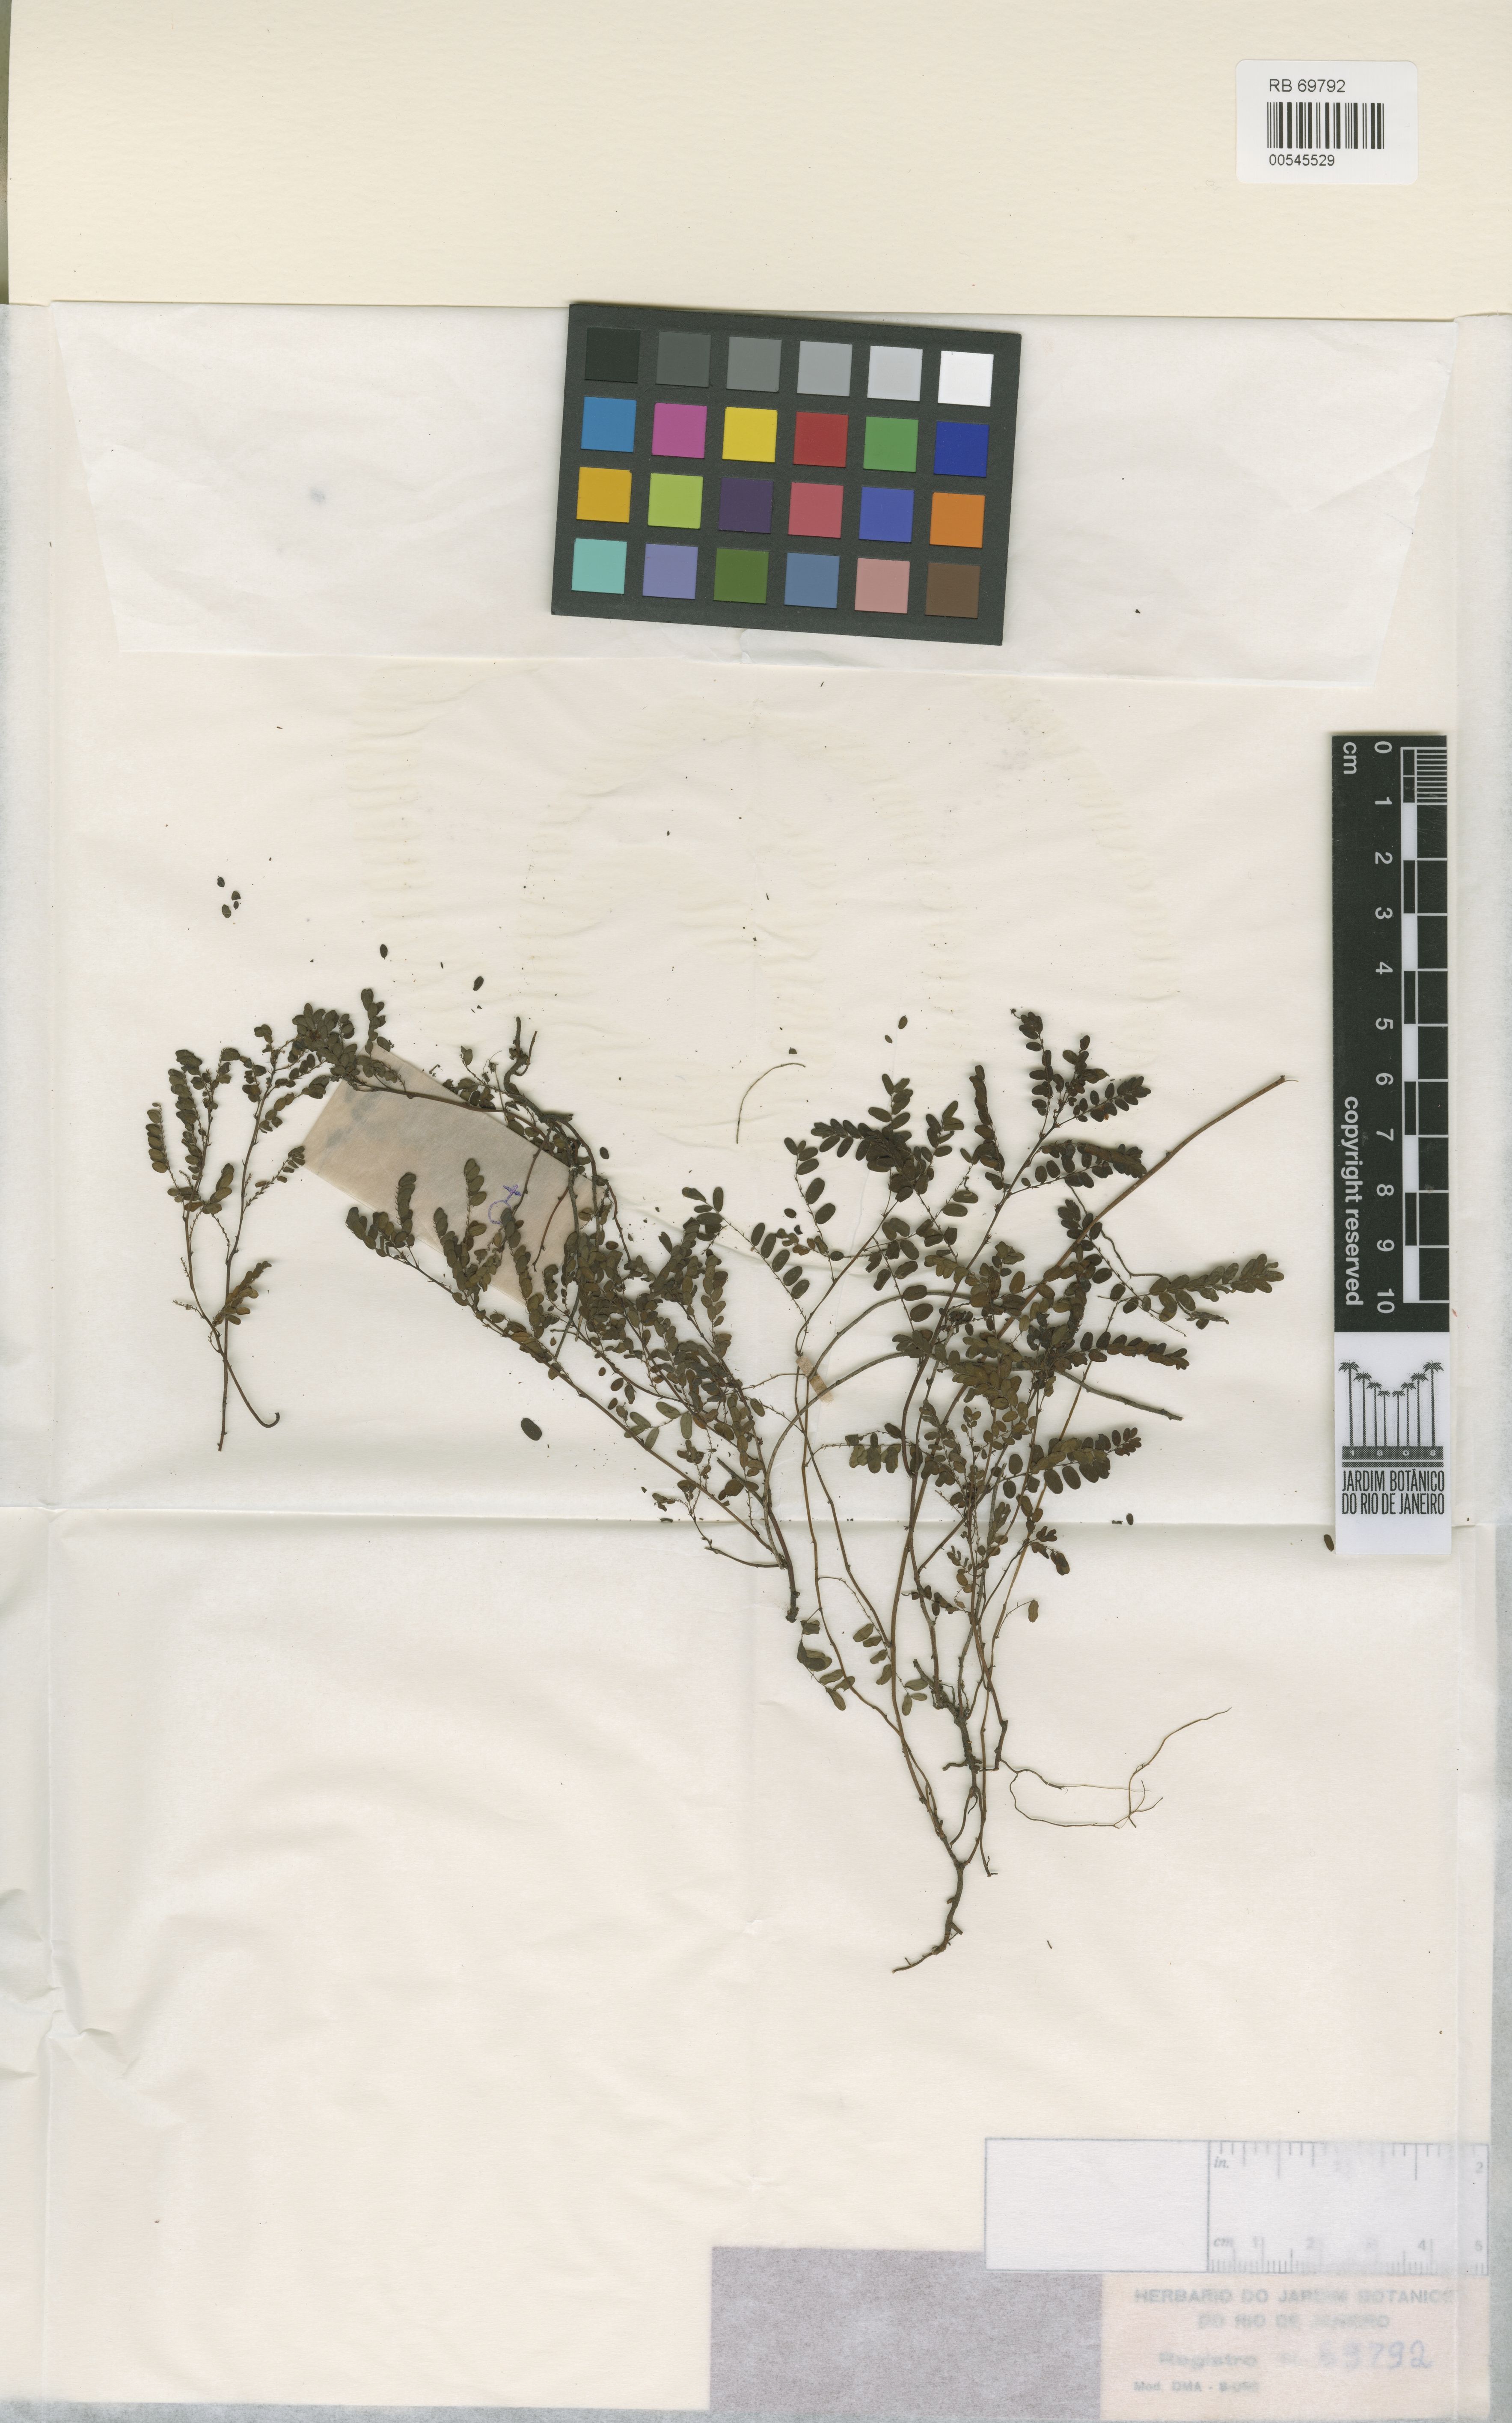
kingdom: Plantae
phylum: Tracheophyta
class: Magnoliopsida
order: Malpighiales
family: Phyllanthaceae
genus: Phyllanthus
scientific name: Phyllanthus itatiaiensis
